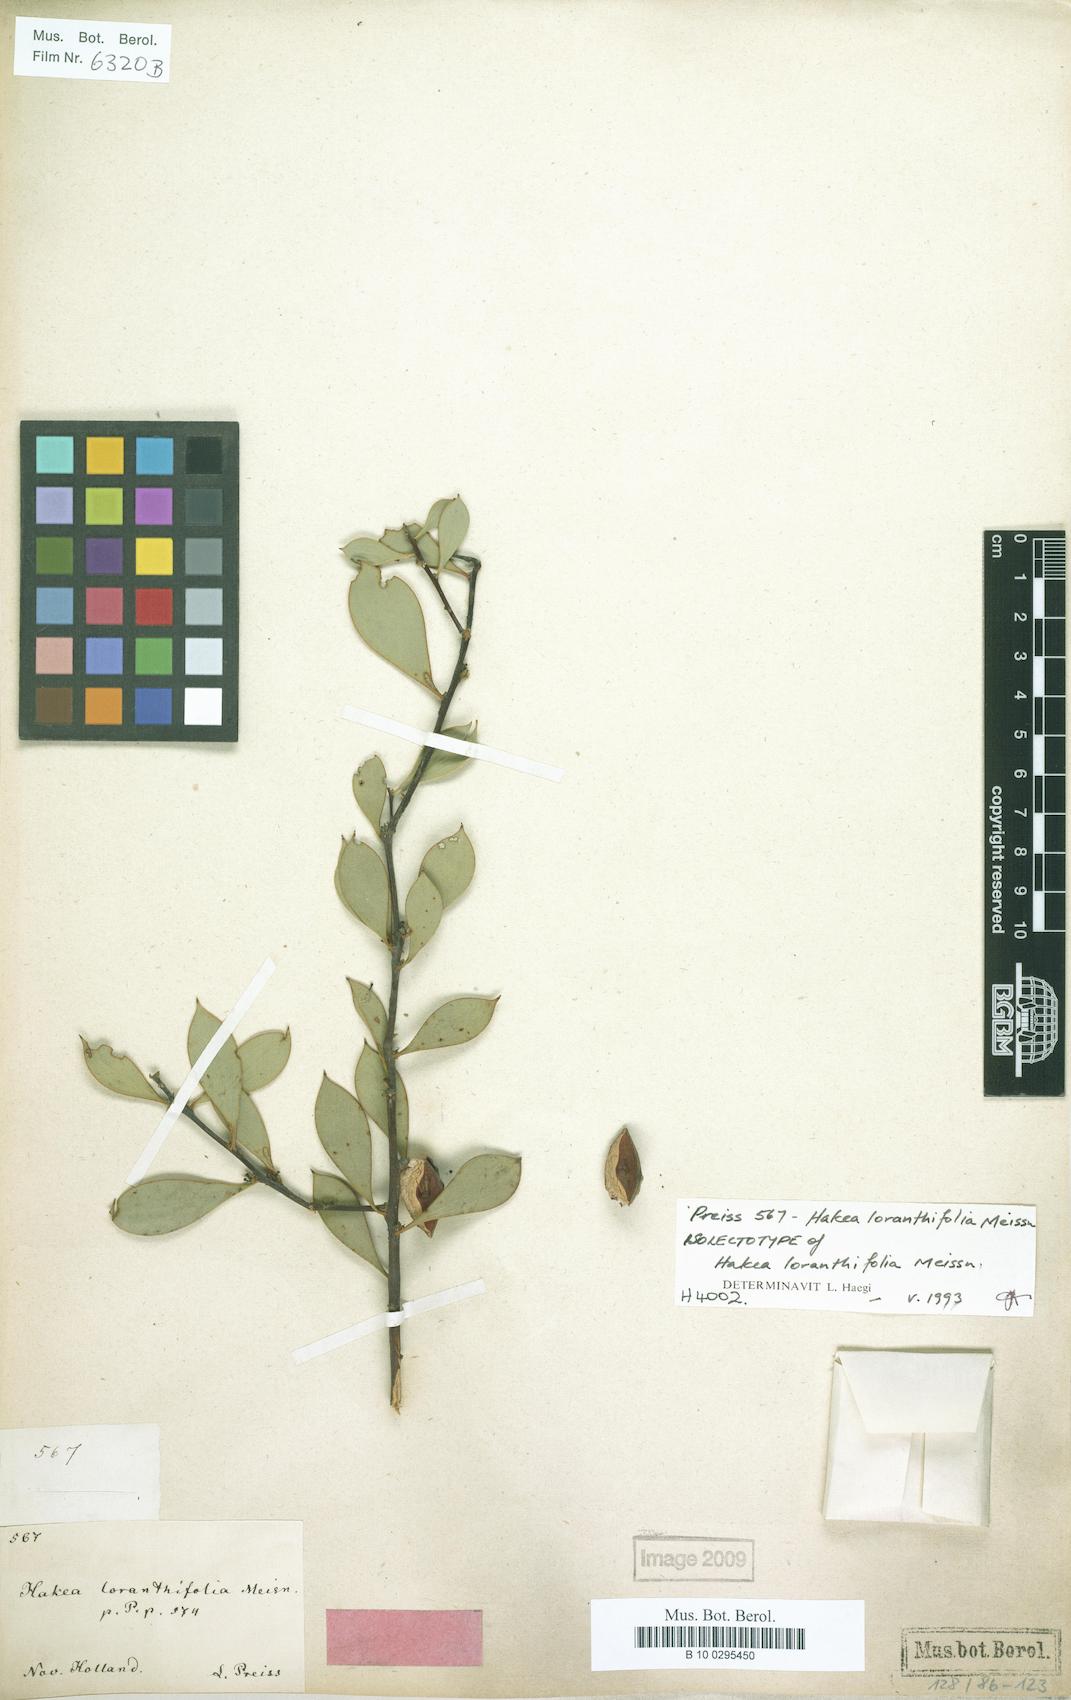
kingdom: Plantae
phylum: Tracheophyta
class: Magnoliopsida
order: Proteales
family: Proteaceae
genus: Hakea
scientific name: Hakea loranthifolia
